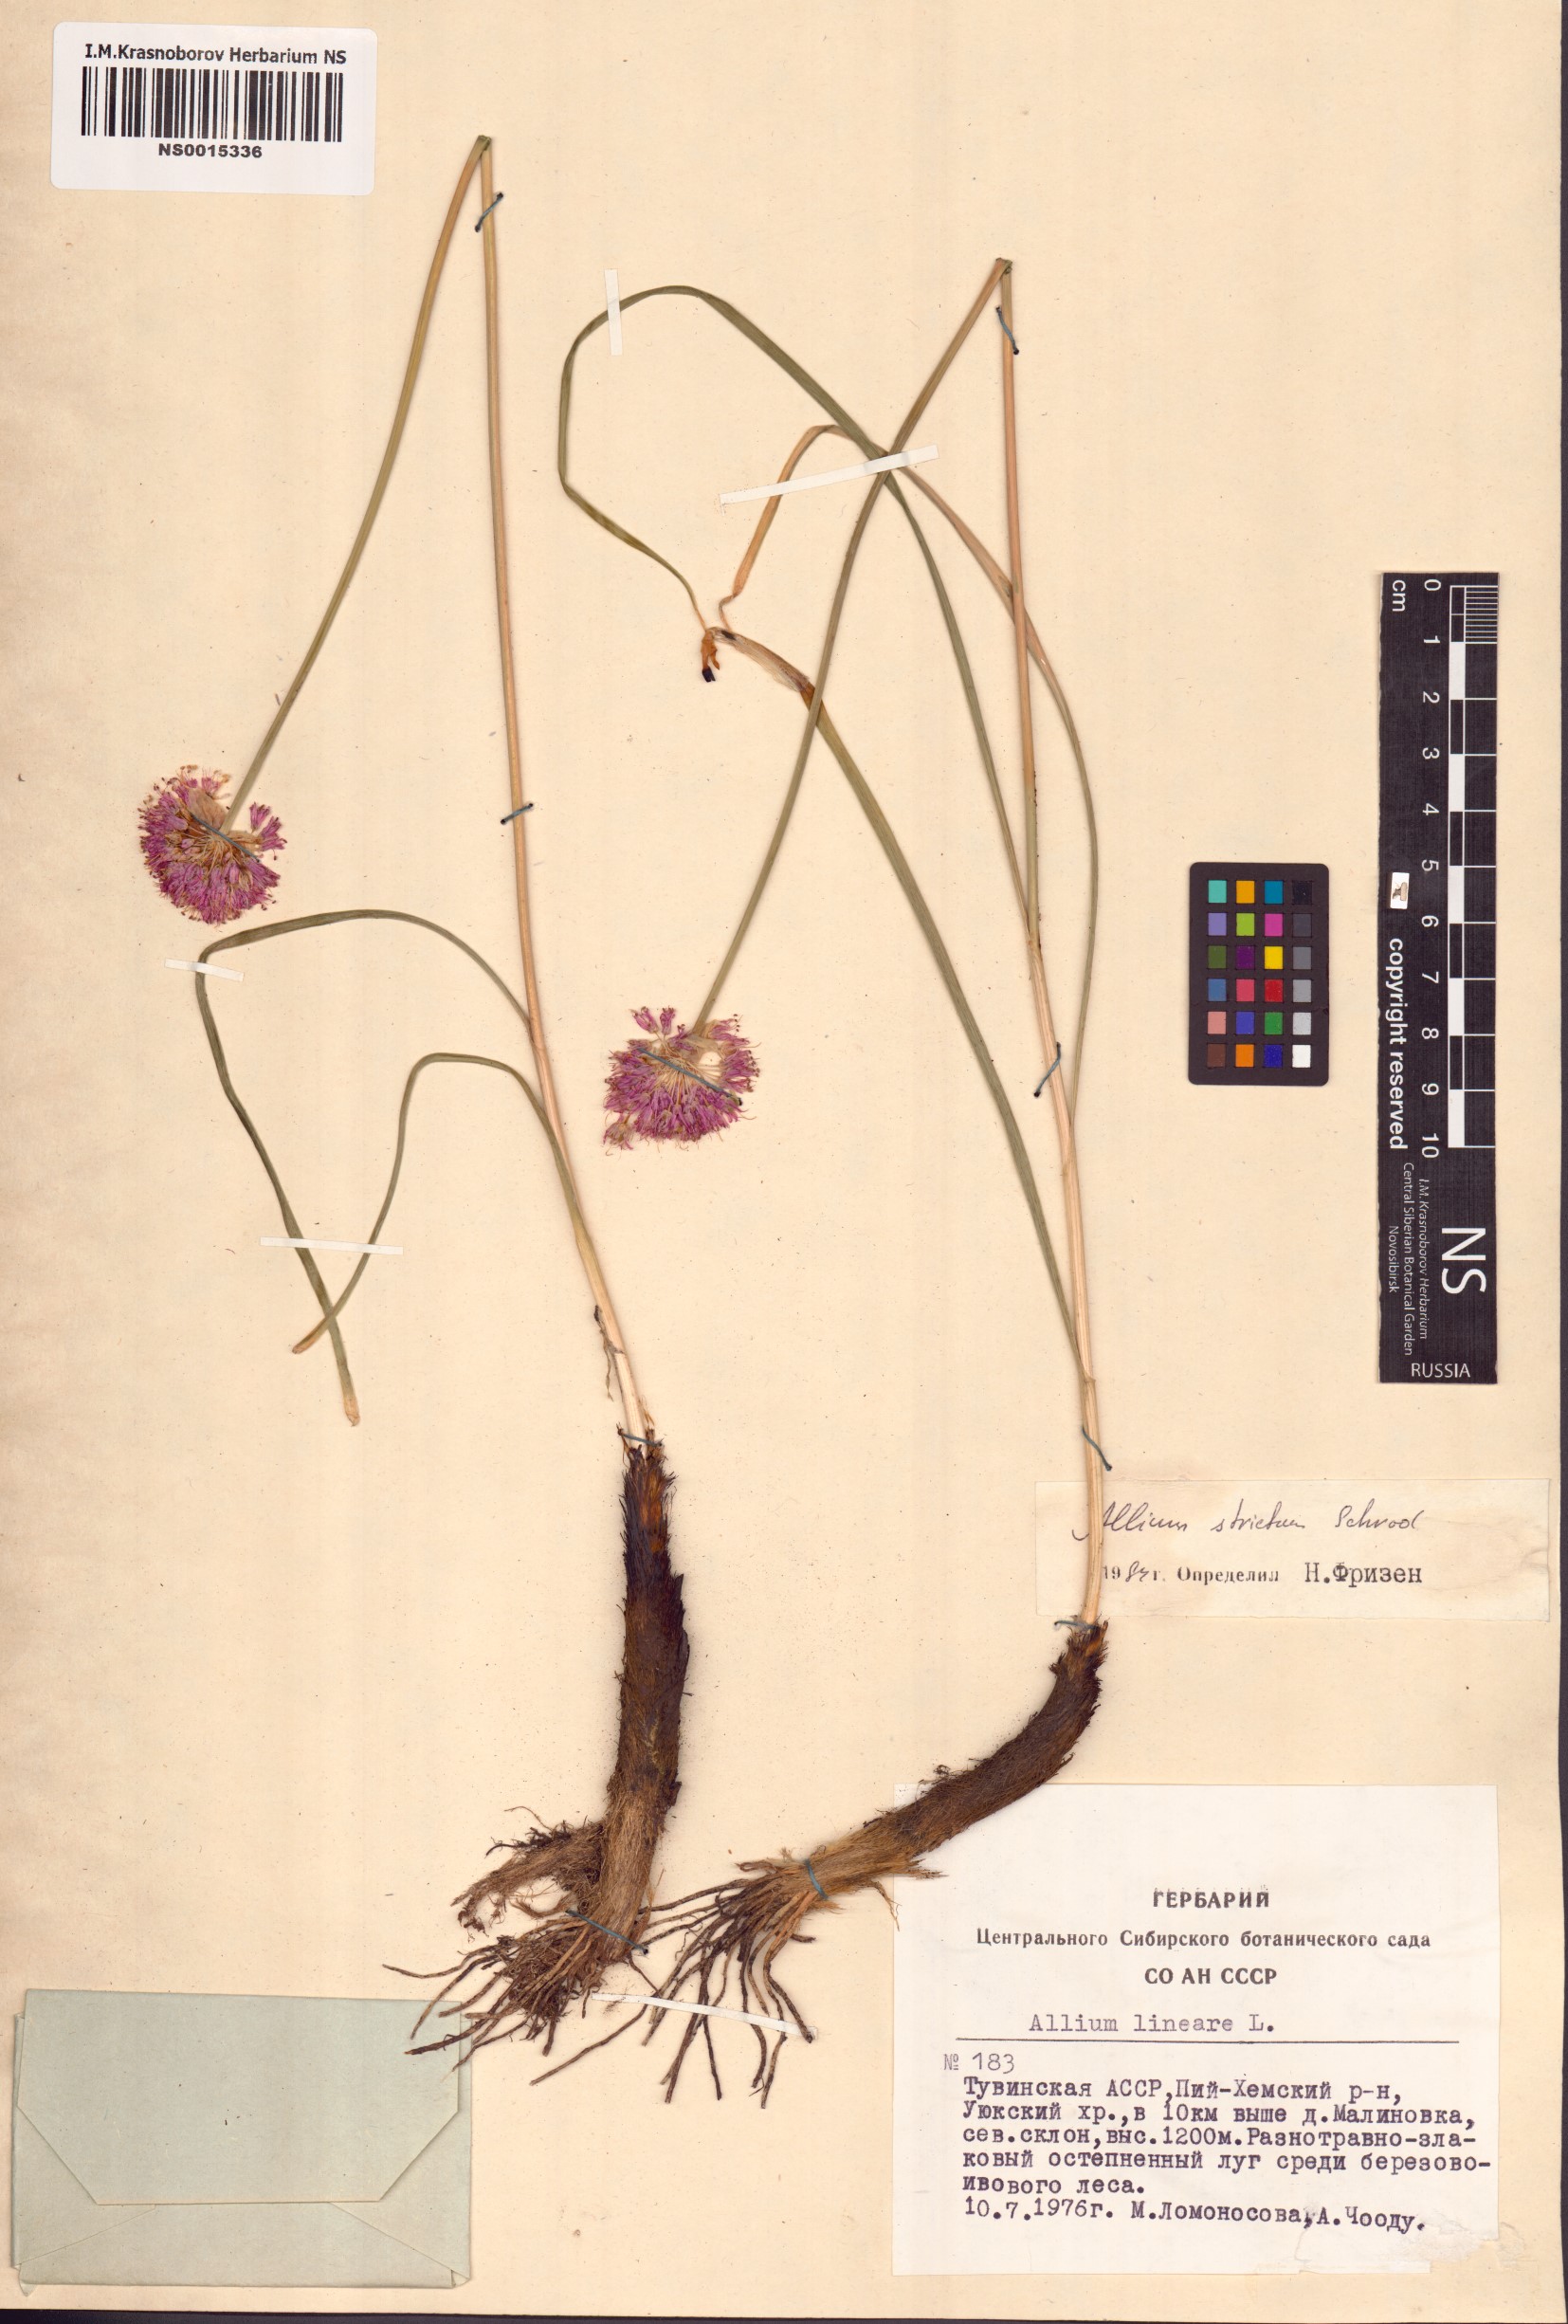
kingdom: Plantae
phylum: Tracheophyta
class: Liliopsida
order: Asparagales
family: Amaryllidaceae
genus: Allium
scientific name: Allium strictum
